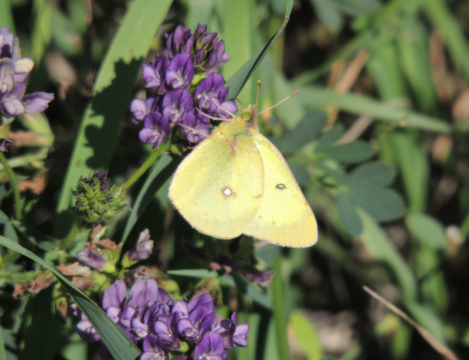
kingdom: Animalia
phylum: Arthropoda
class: Insecta
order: Lepidoptera
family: Pieridae
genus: Colias
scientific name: Colias philodice
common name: Clouded Sulphur
